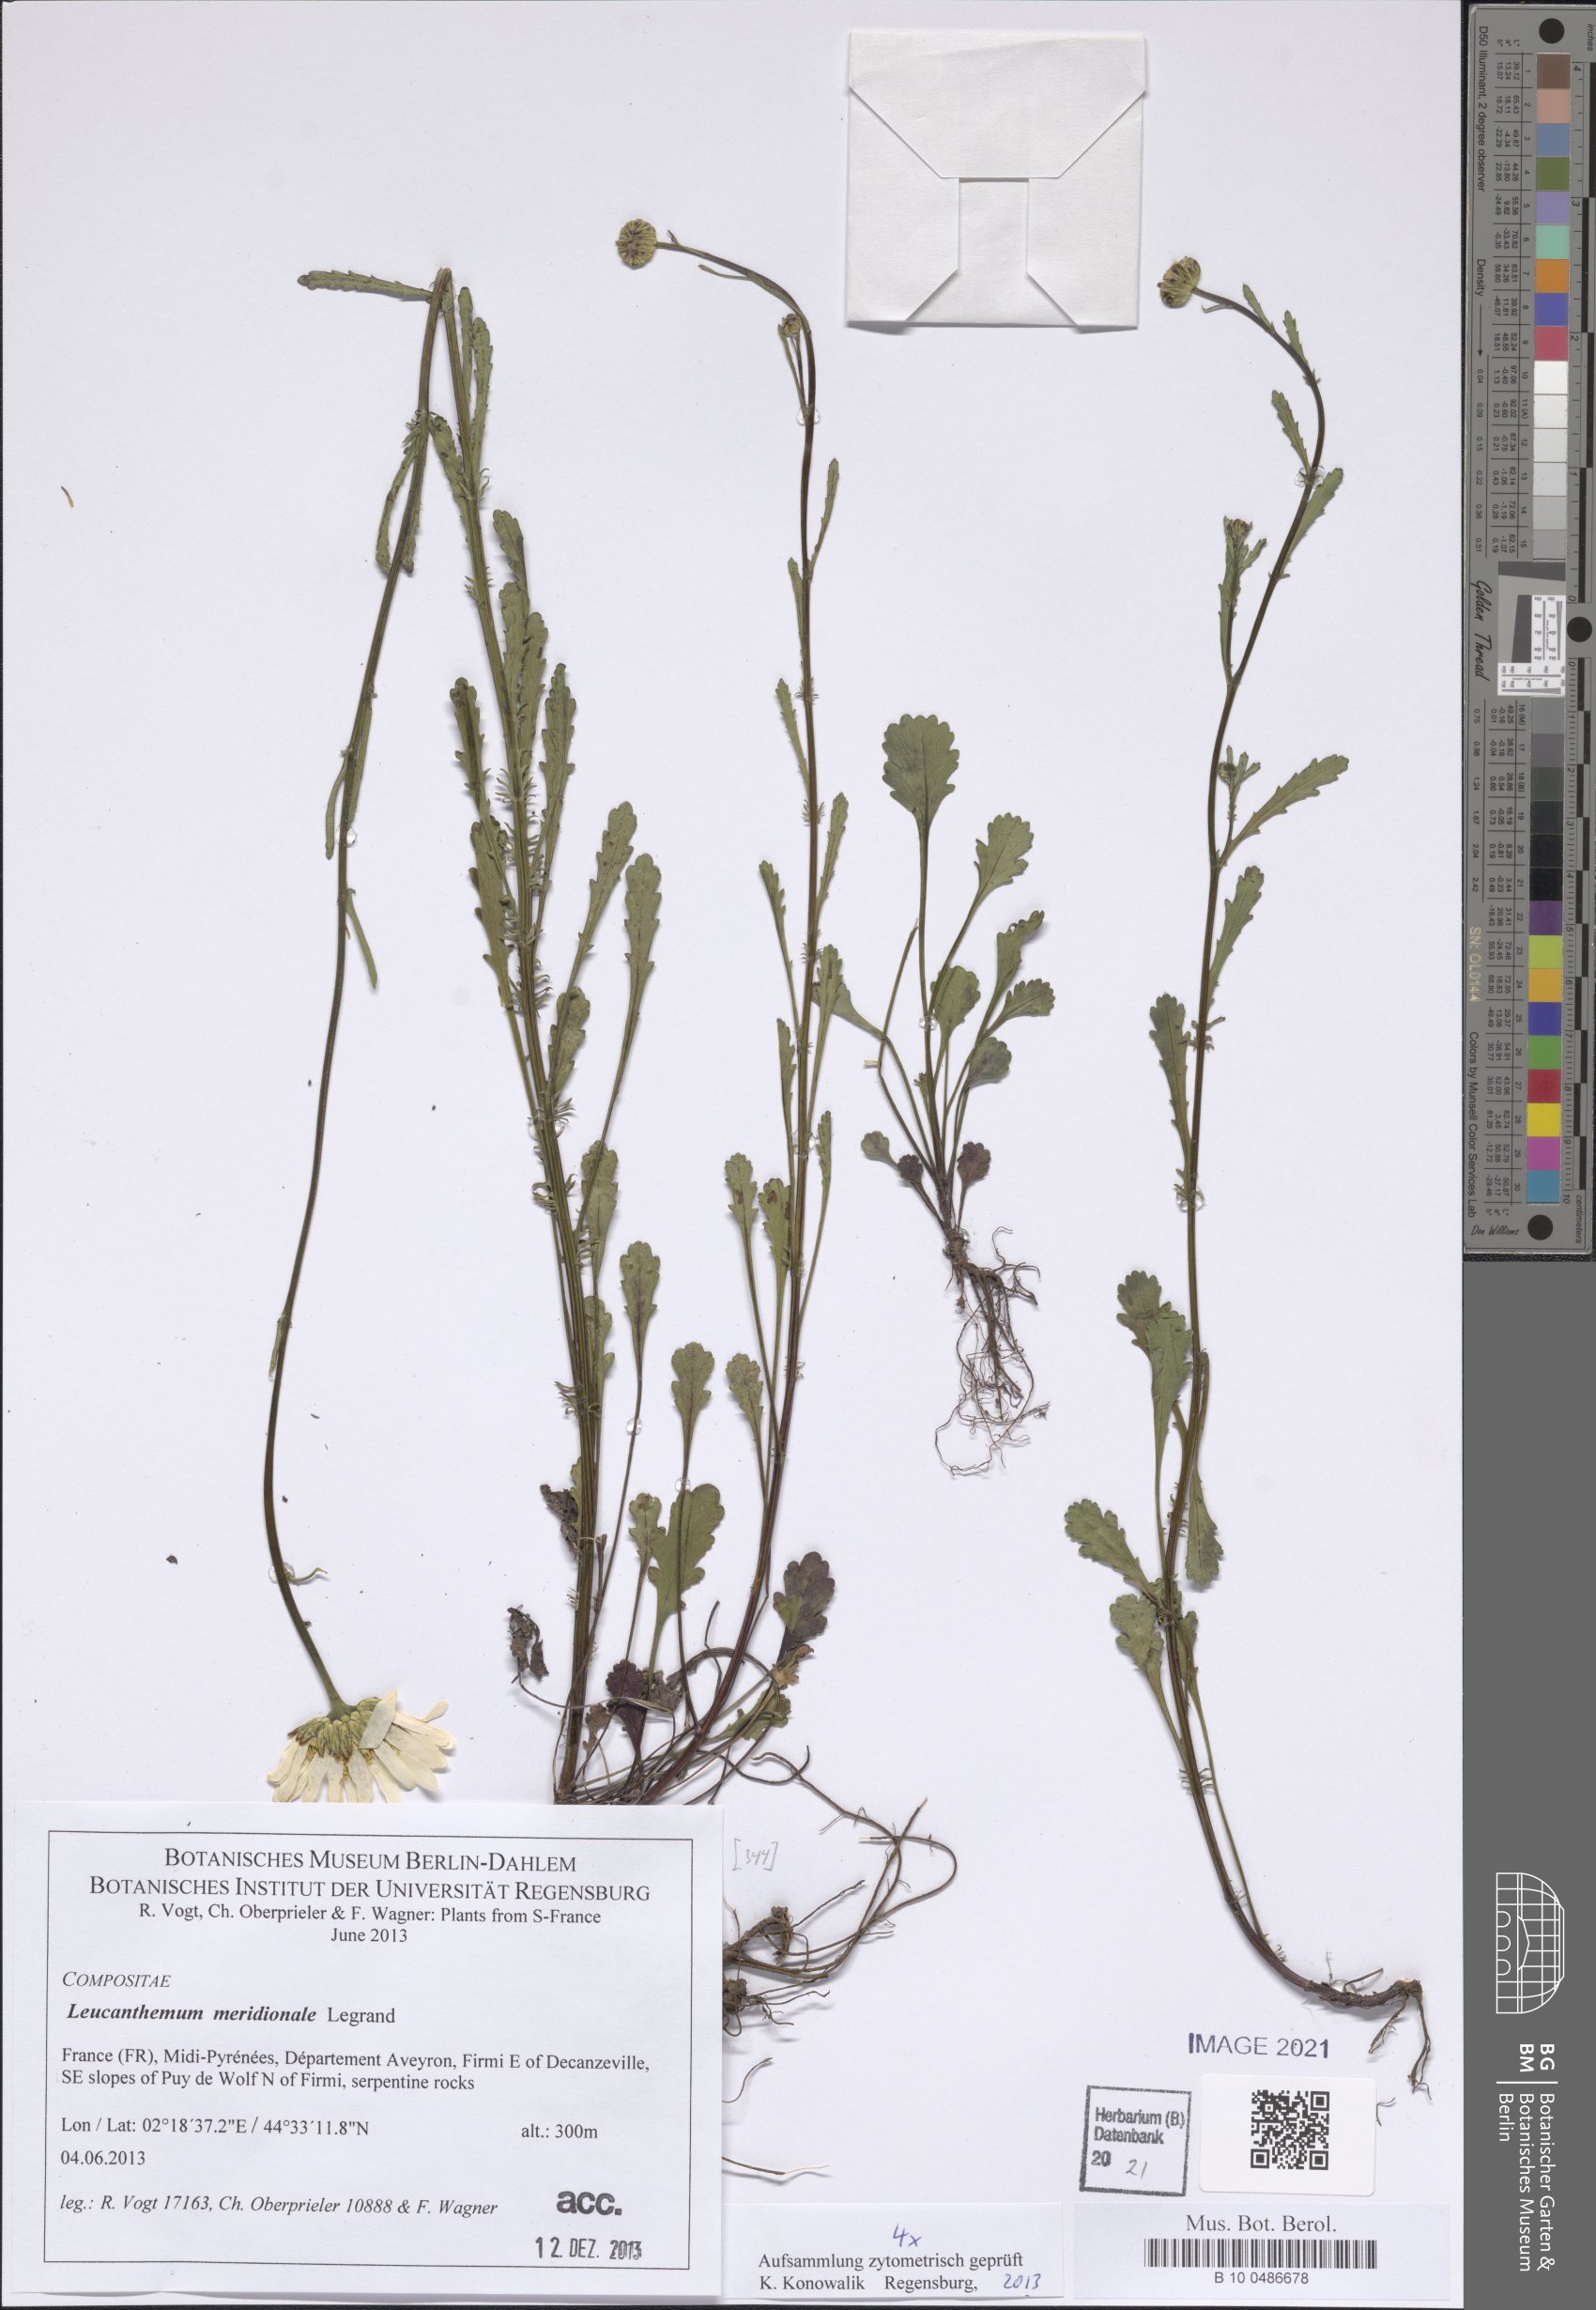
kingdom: Plantae
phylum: Tracheophyta
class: Magnoliopsida
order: Asterales
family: Asteraceae
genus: Leucanthemum
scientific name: Leucanthemum meridionale
